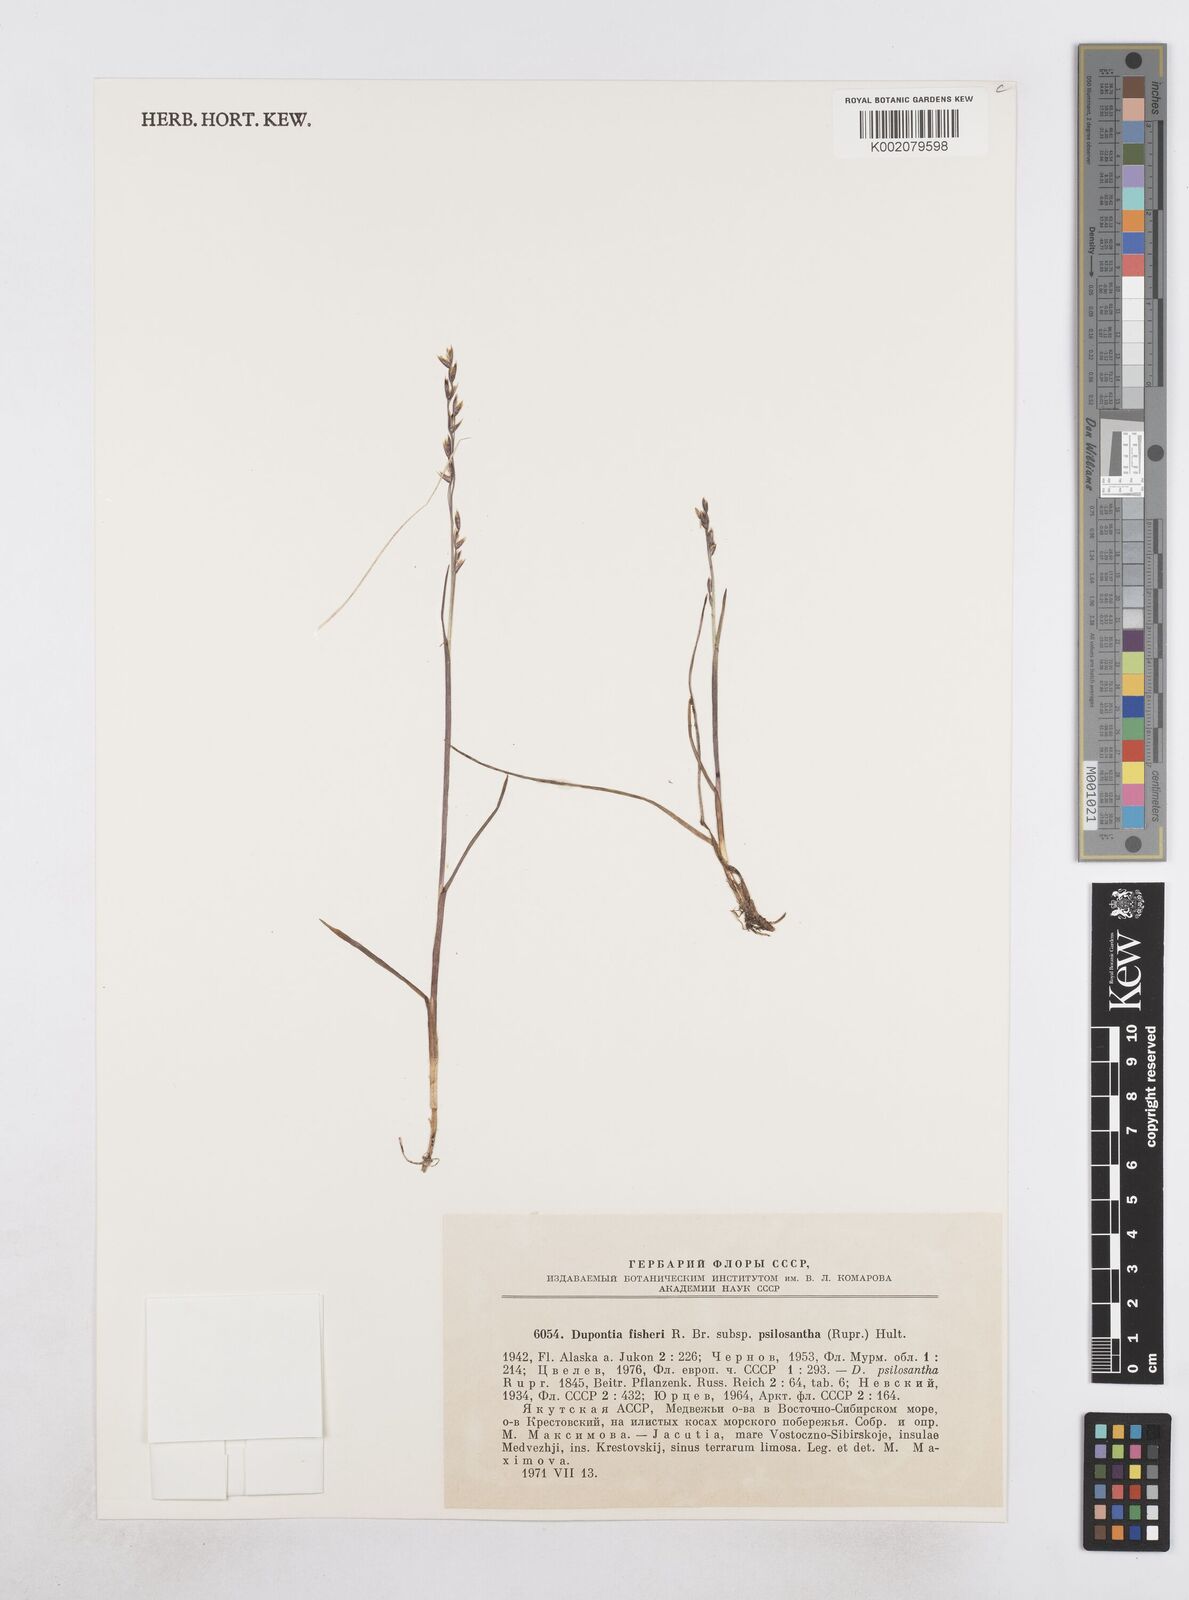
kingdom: Plantae
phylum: Tracheophyta
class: Liliopsida
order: Poales
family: Poaceae
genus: Dupontia
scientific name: Dupontia fisheri
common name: Tundra grass
